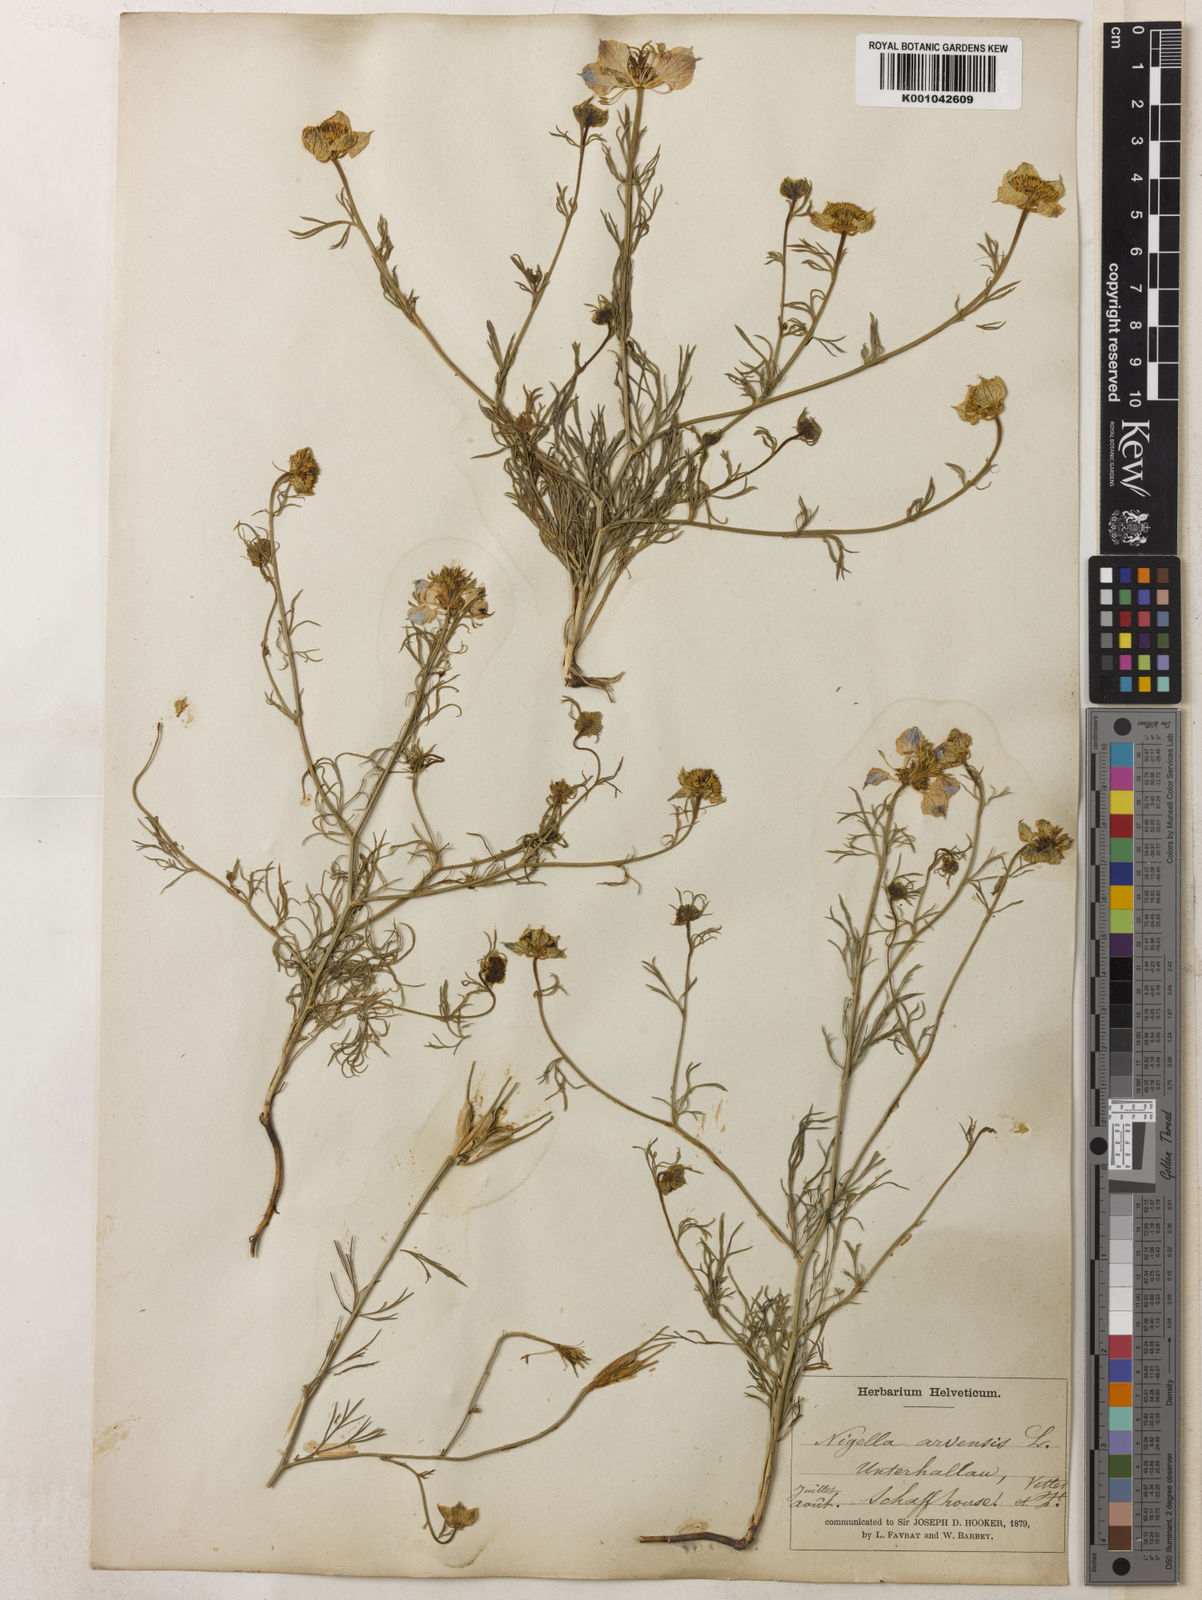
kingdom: Plantae
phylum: Tracheophyta
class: Magnoliopsida
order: Ranunculales
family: Ranunculaceae
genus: Nigella
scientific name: Nigella arvensis
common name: Wild fennel-flower
